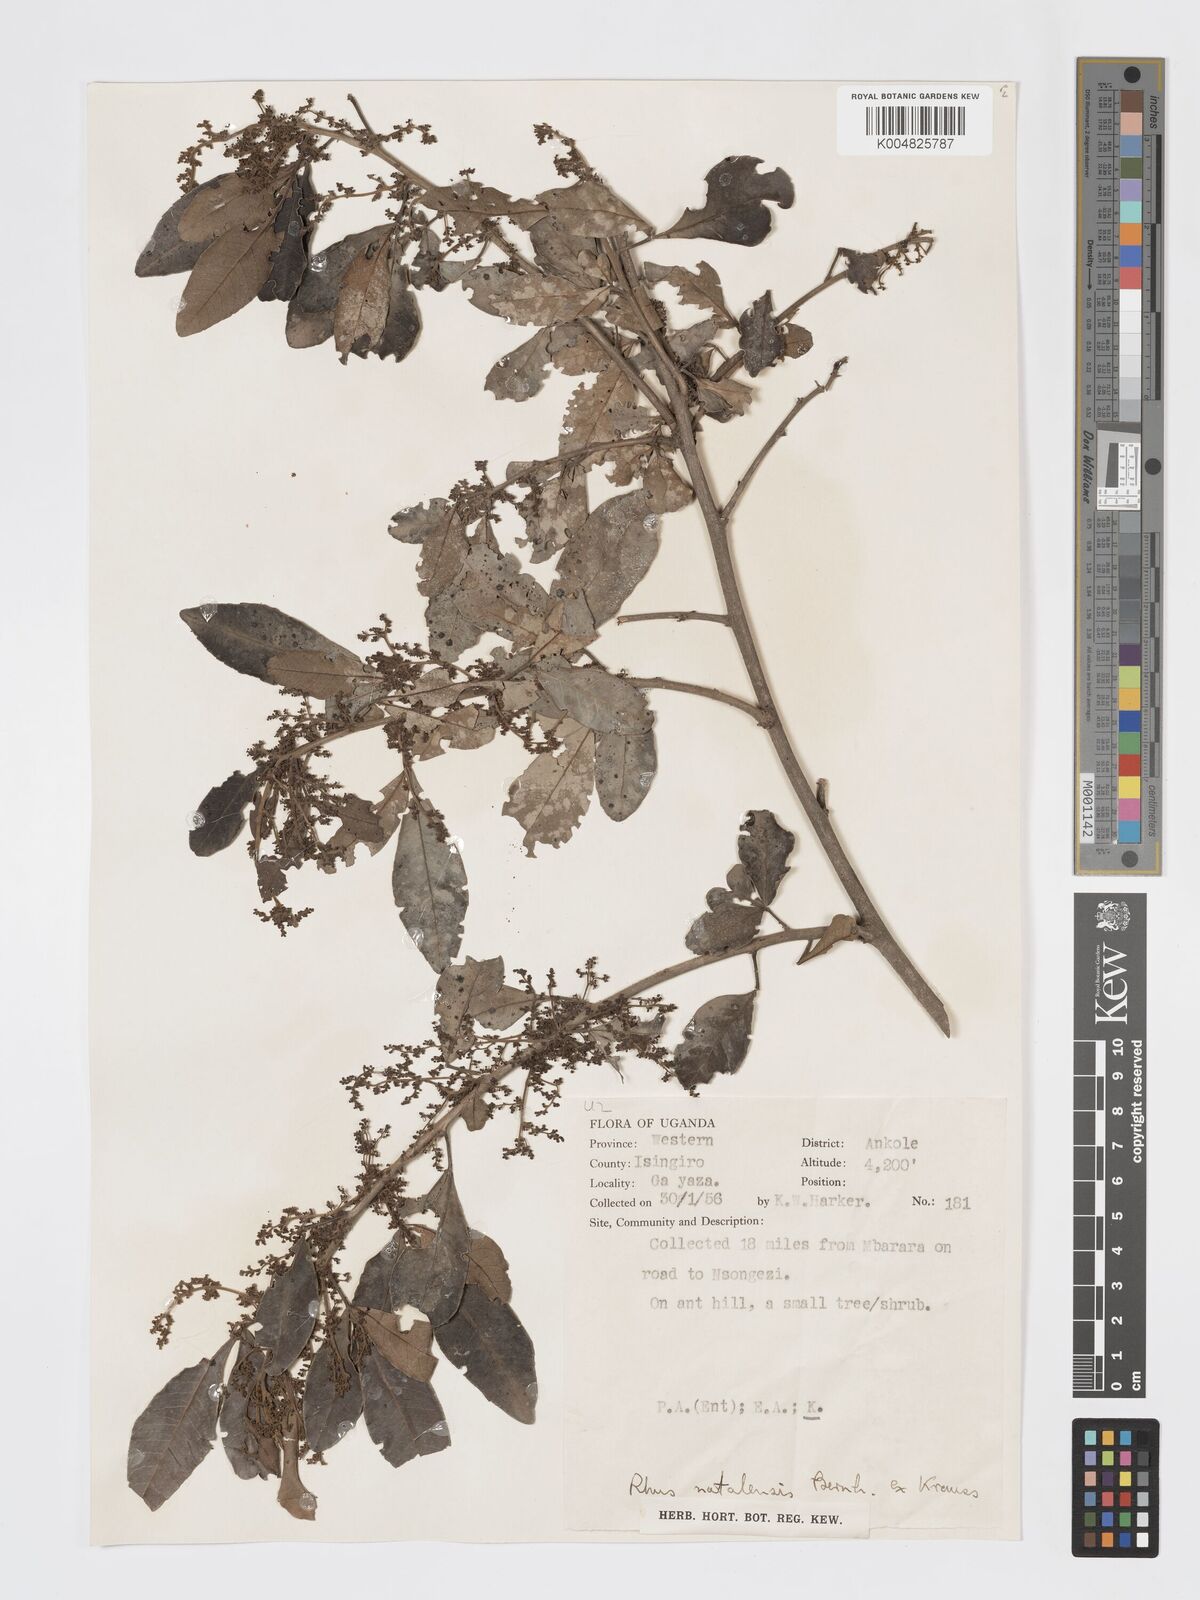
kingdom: Plantae
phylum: Tracheophyta
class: Magnoliopsida
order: Sapindales
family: Anacardiaceae
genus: Searsia
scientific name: Searsia natalensis
